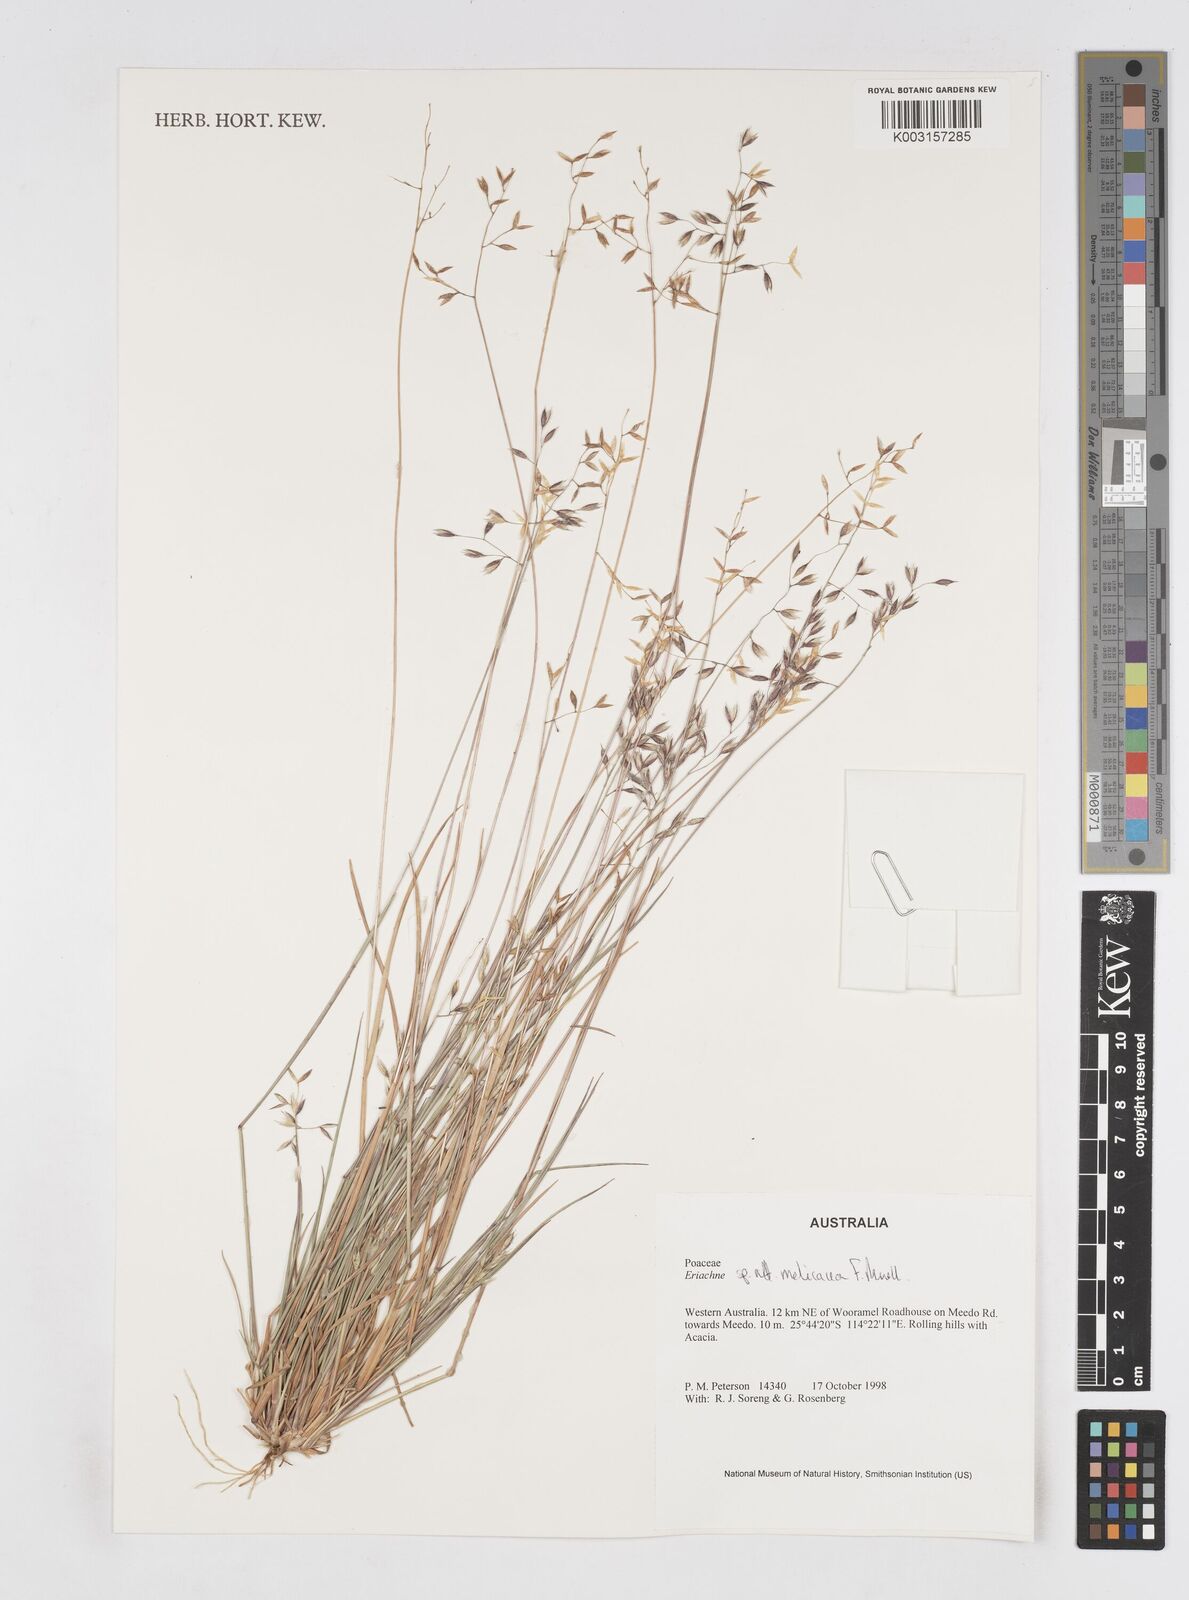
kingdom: Plantae
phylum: Tracheophyta
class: Liliopsida
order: Poales
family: Poaceae
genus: Eriachne
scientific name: Eriachne melicacea
